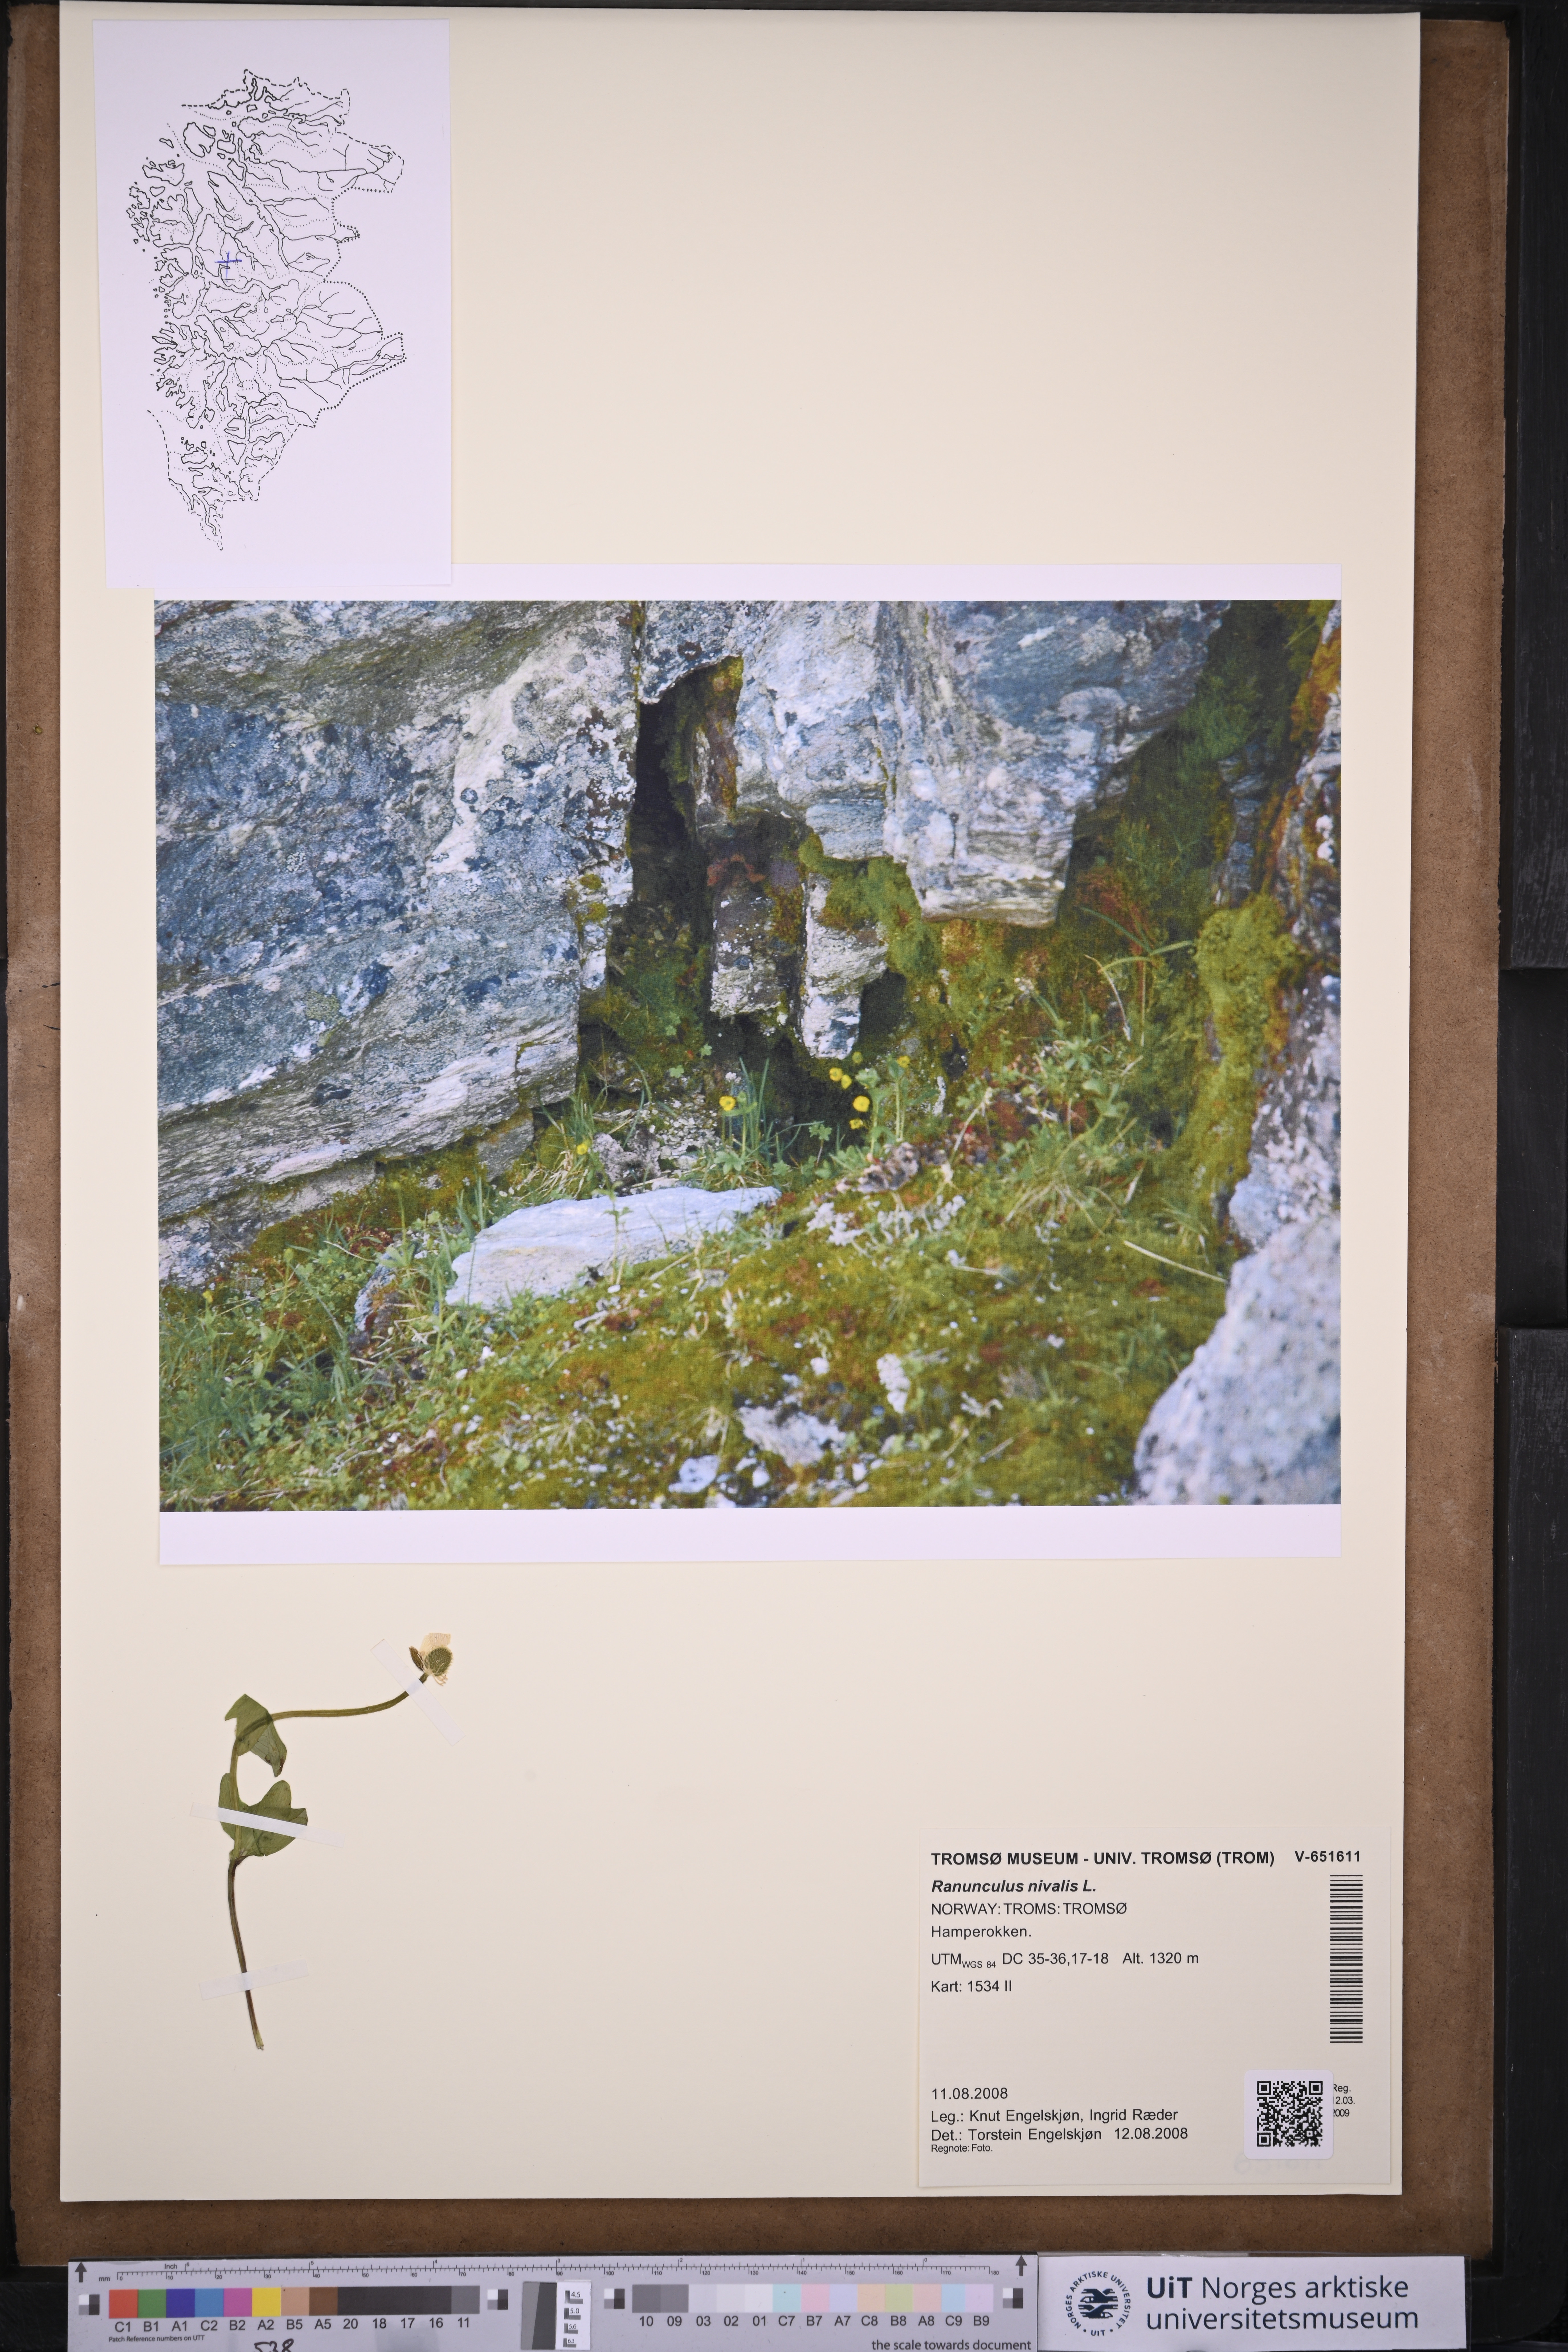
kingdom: Plantae
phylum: Tracheophyta
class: Magnoliopsida
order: Ranunculales
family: Ranunculaceae
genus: Ranunculus
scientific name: Ranunculus nivalis
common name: Snow buttercup
